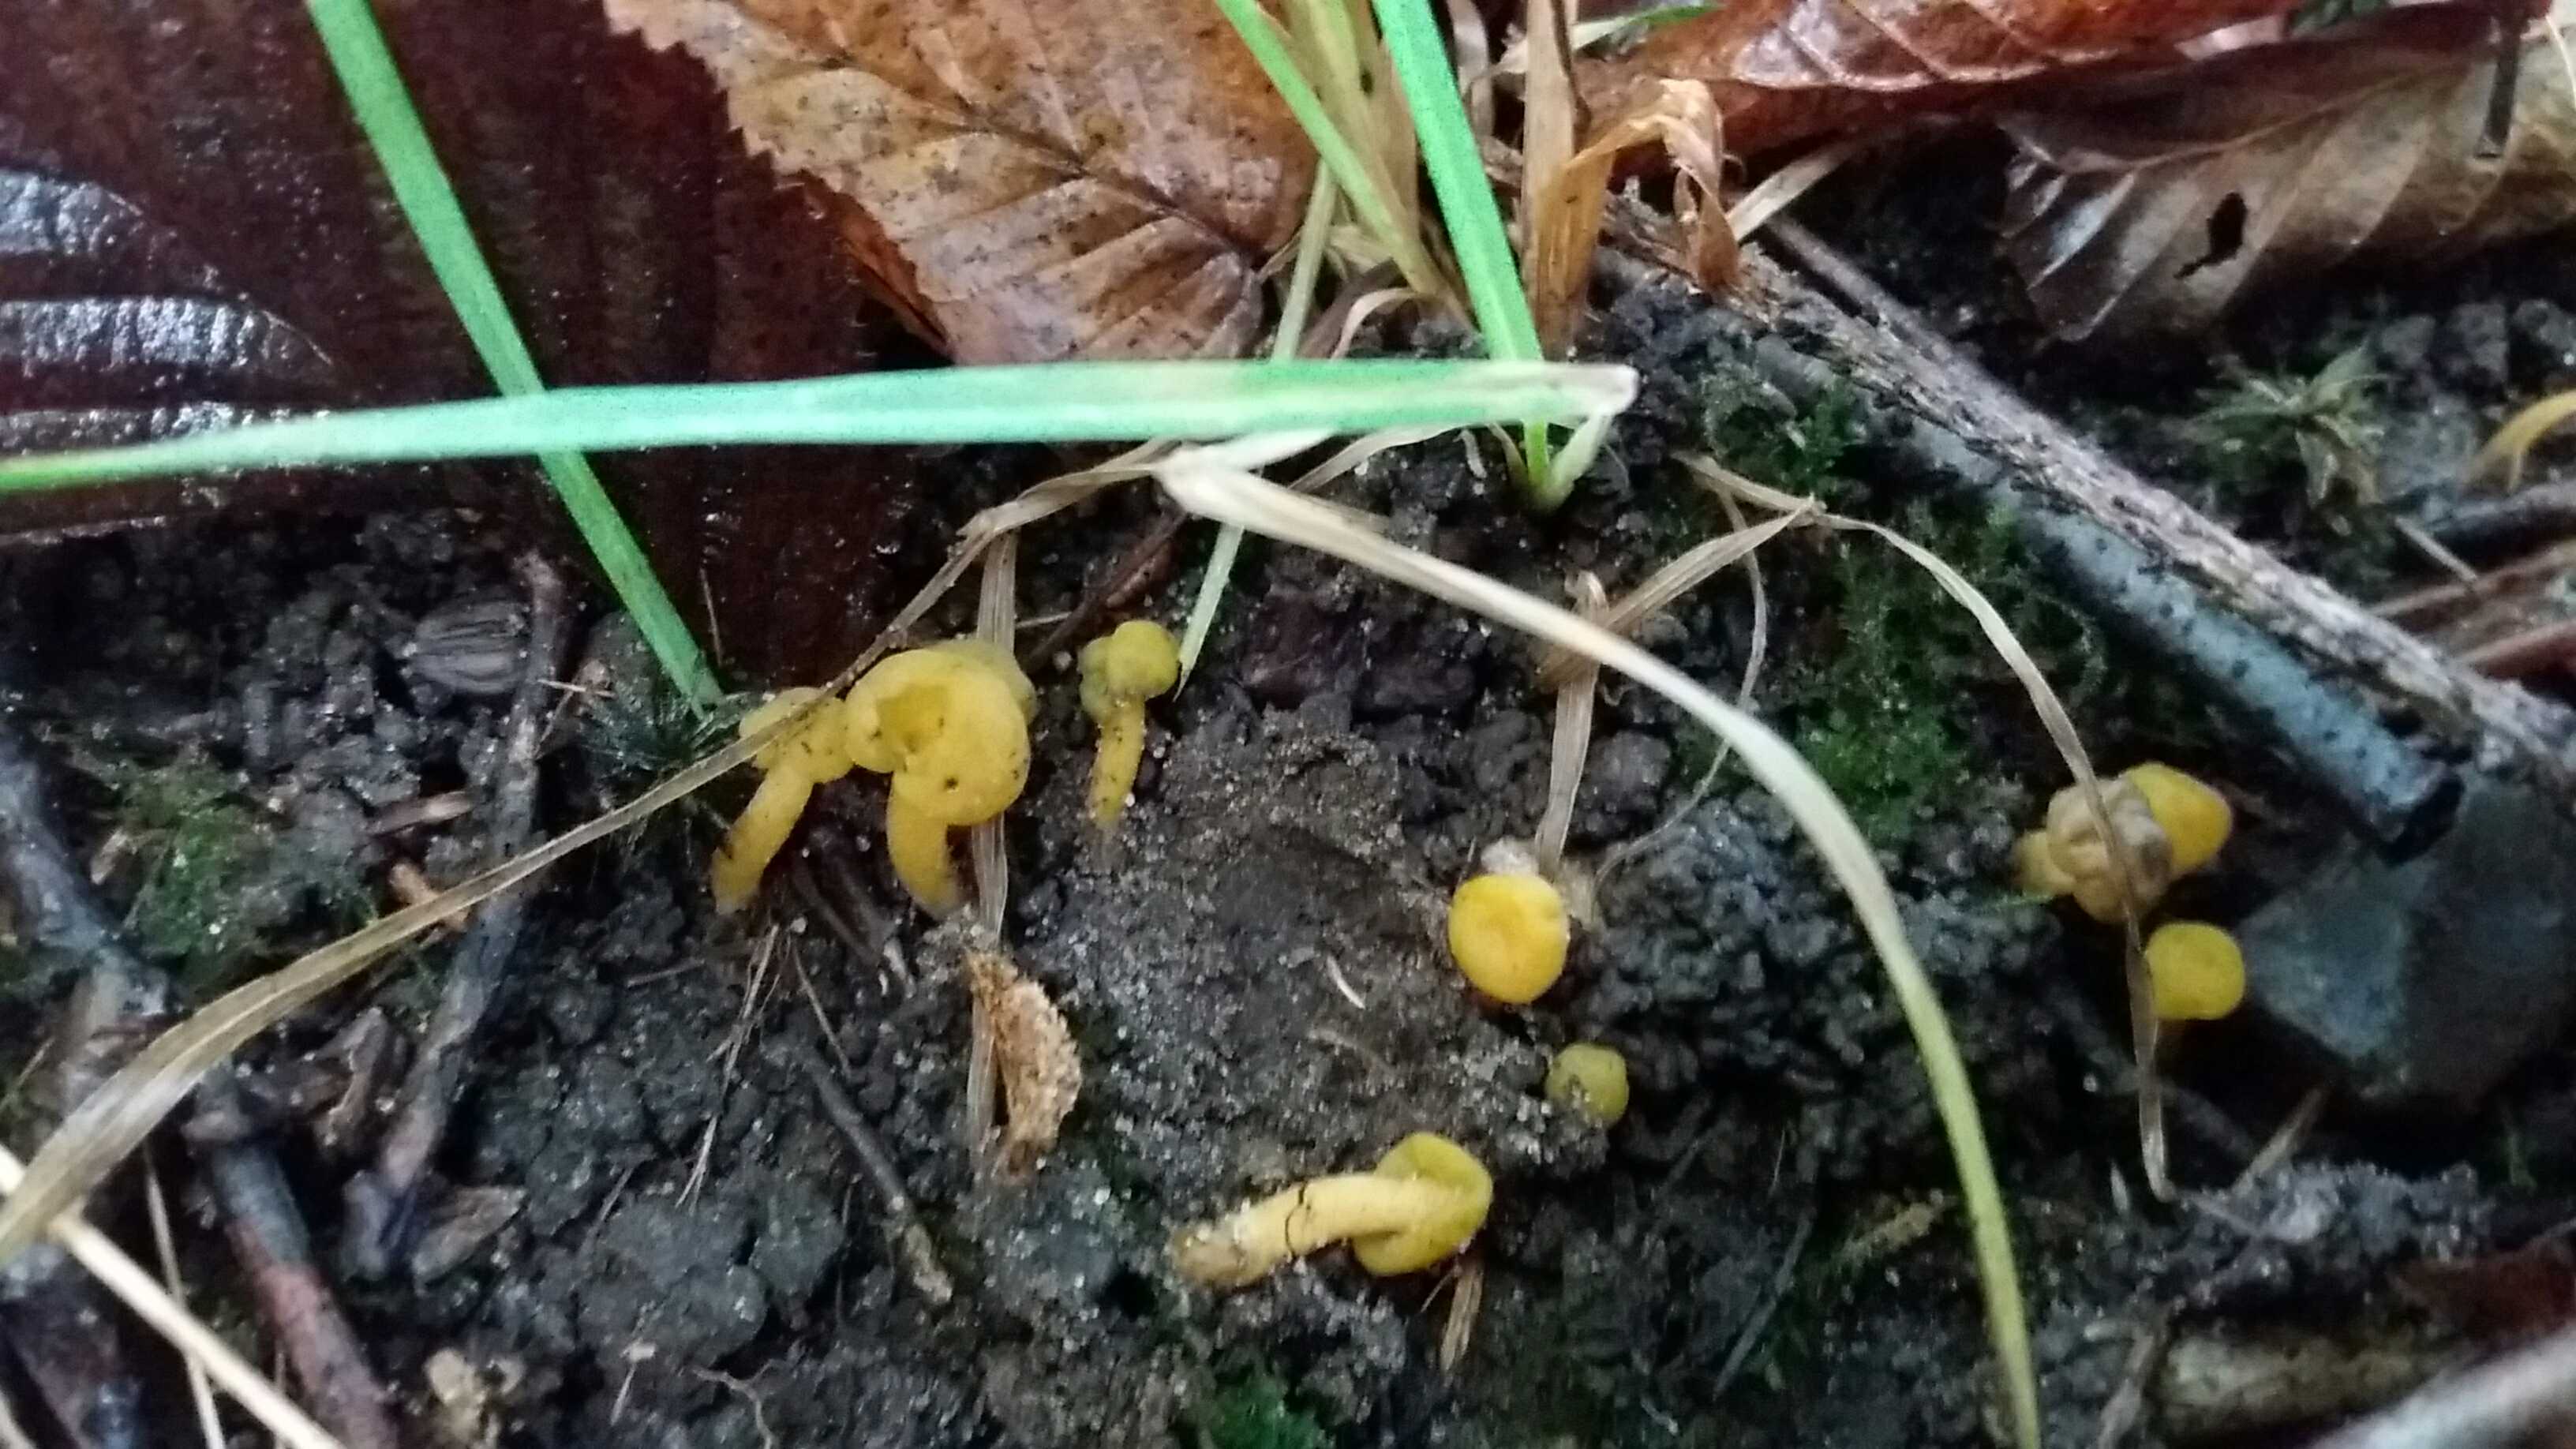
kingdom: Fungi
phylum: Ascomycota
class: Leotiomycetes
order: Leotiales
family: Leotiaceae
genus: Leotia
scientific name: Leotia lubrica
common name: ravsvamp
